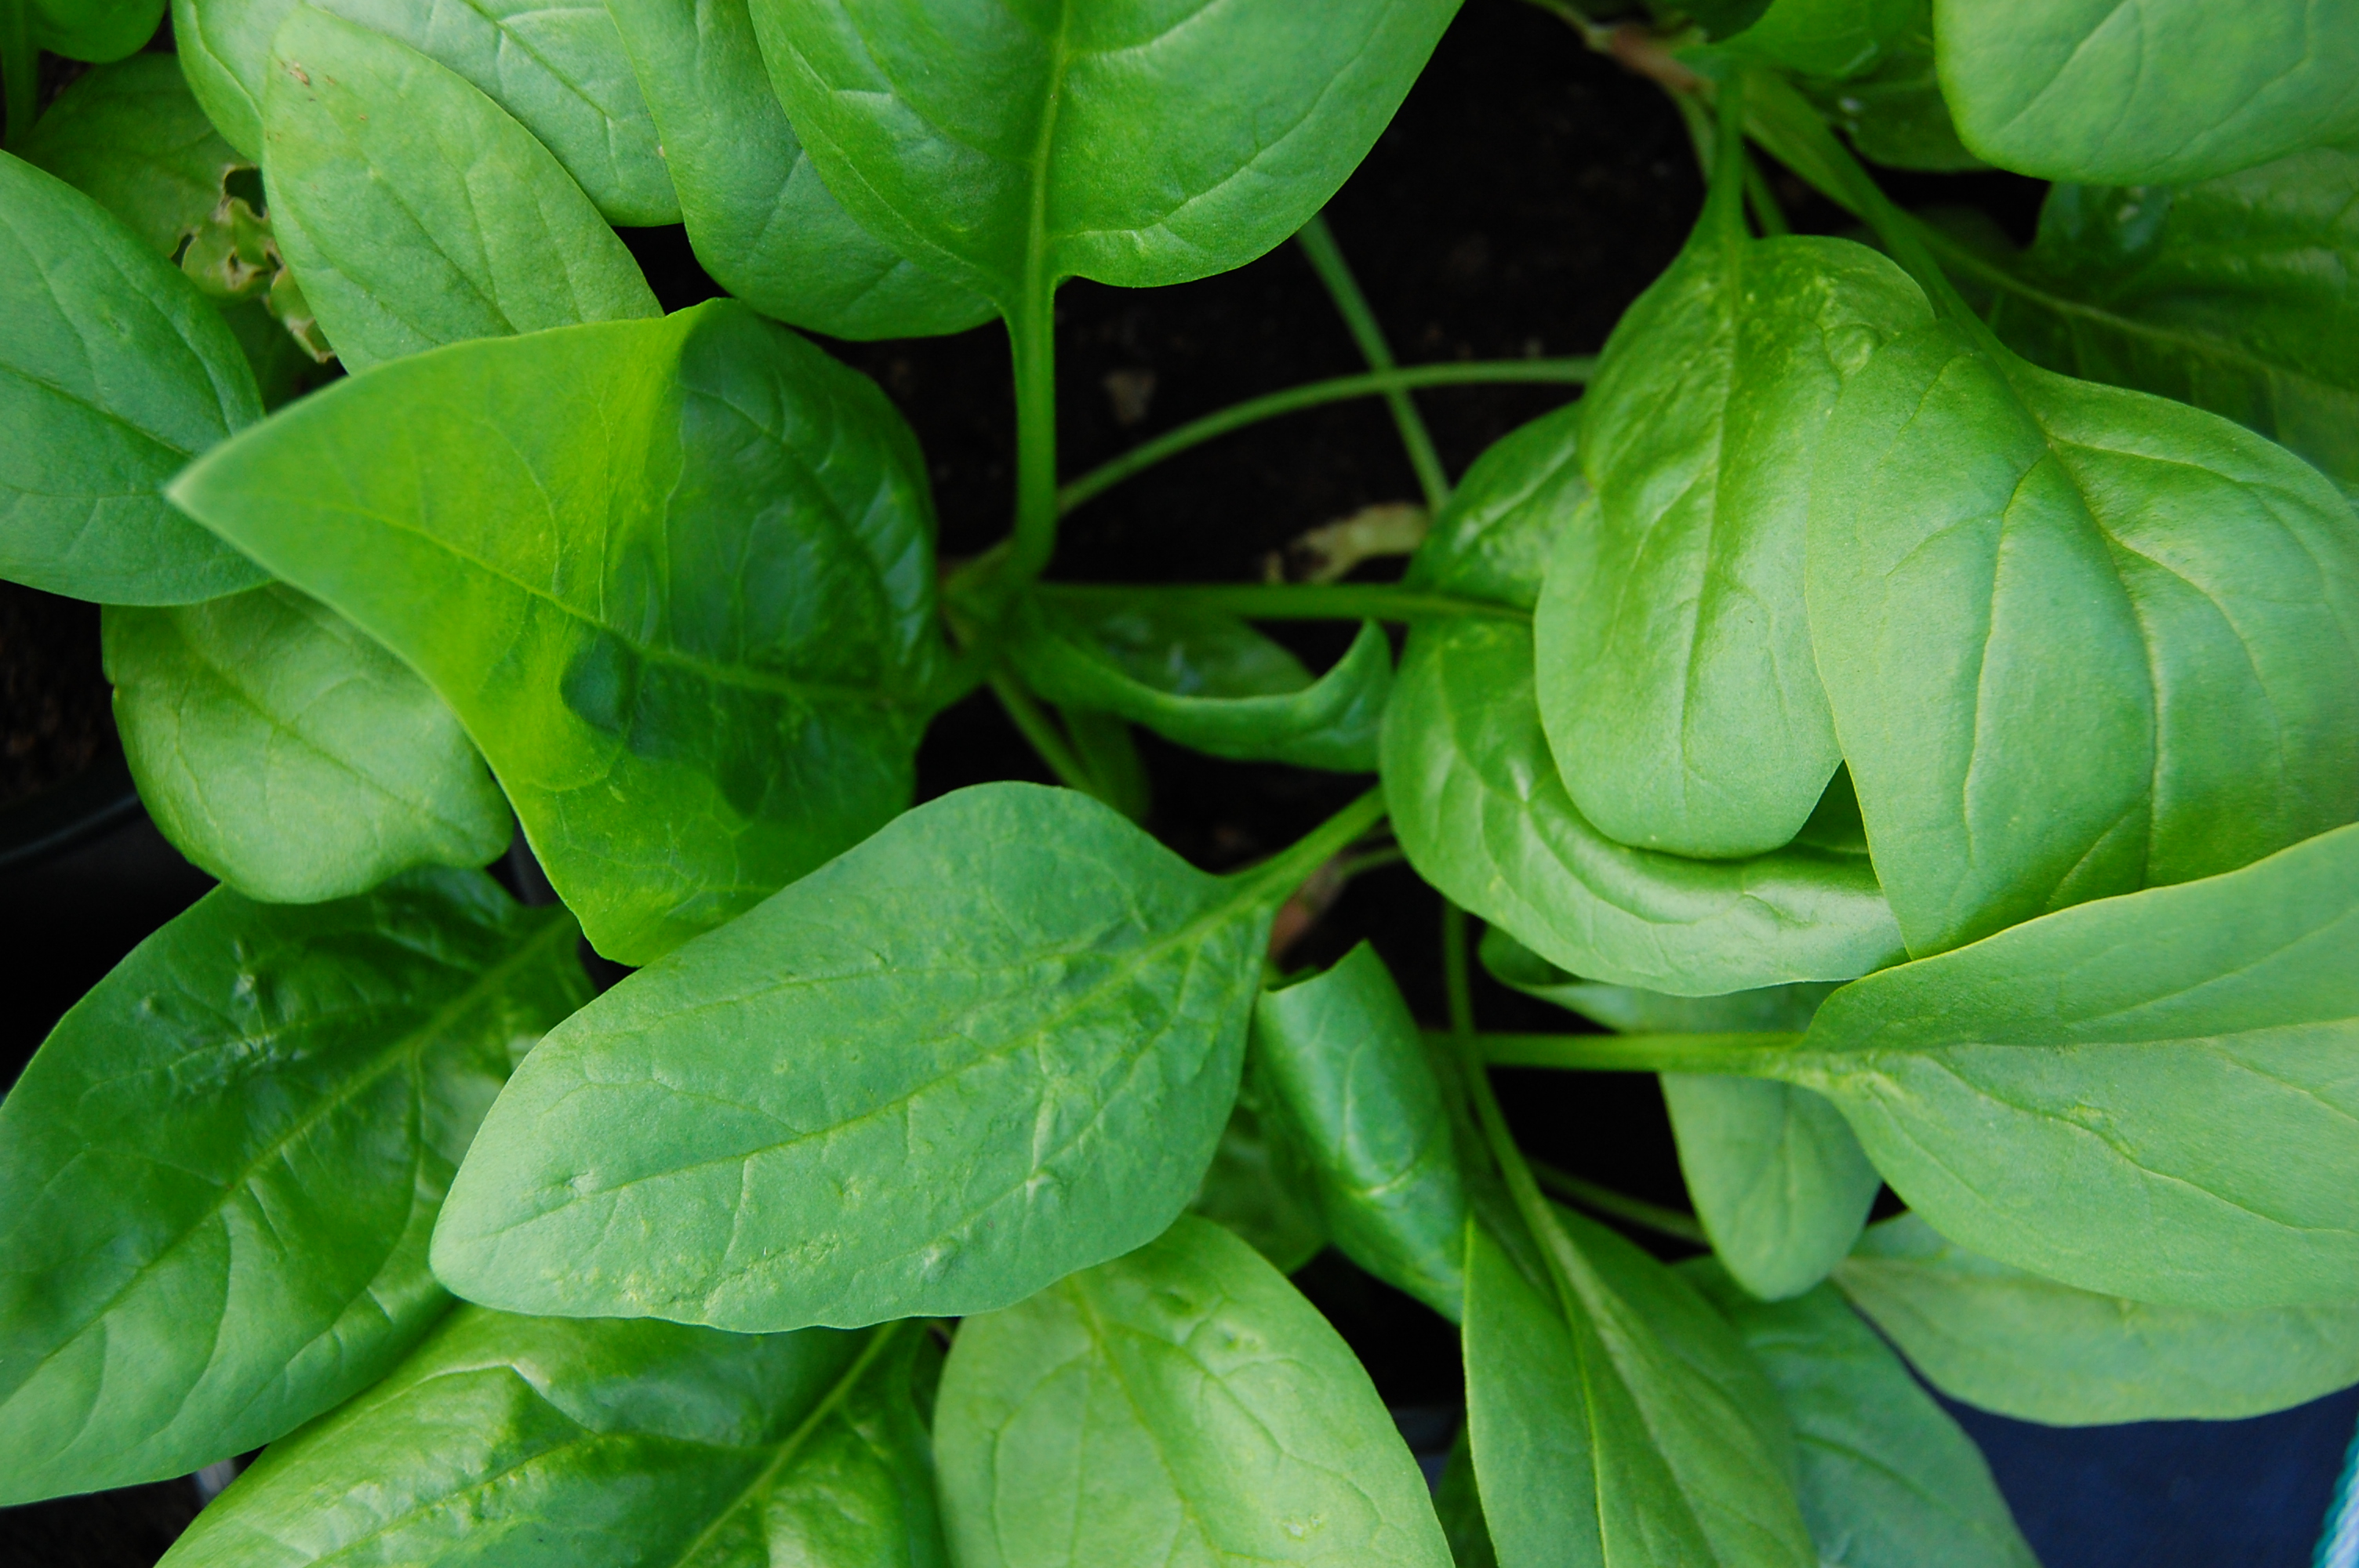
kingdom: Plantae
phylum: Tracheophyta
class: Magnoliopsida
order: Caryophyllales
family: Amaranthaceae
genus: Spinacia
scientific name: Spinacia oleracea
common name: Spinach
